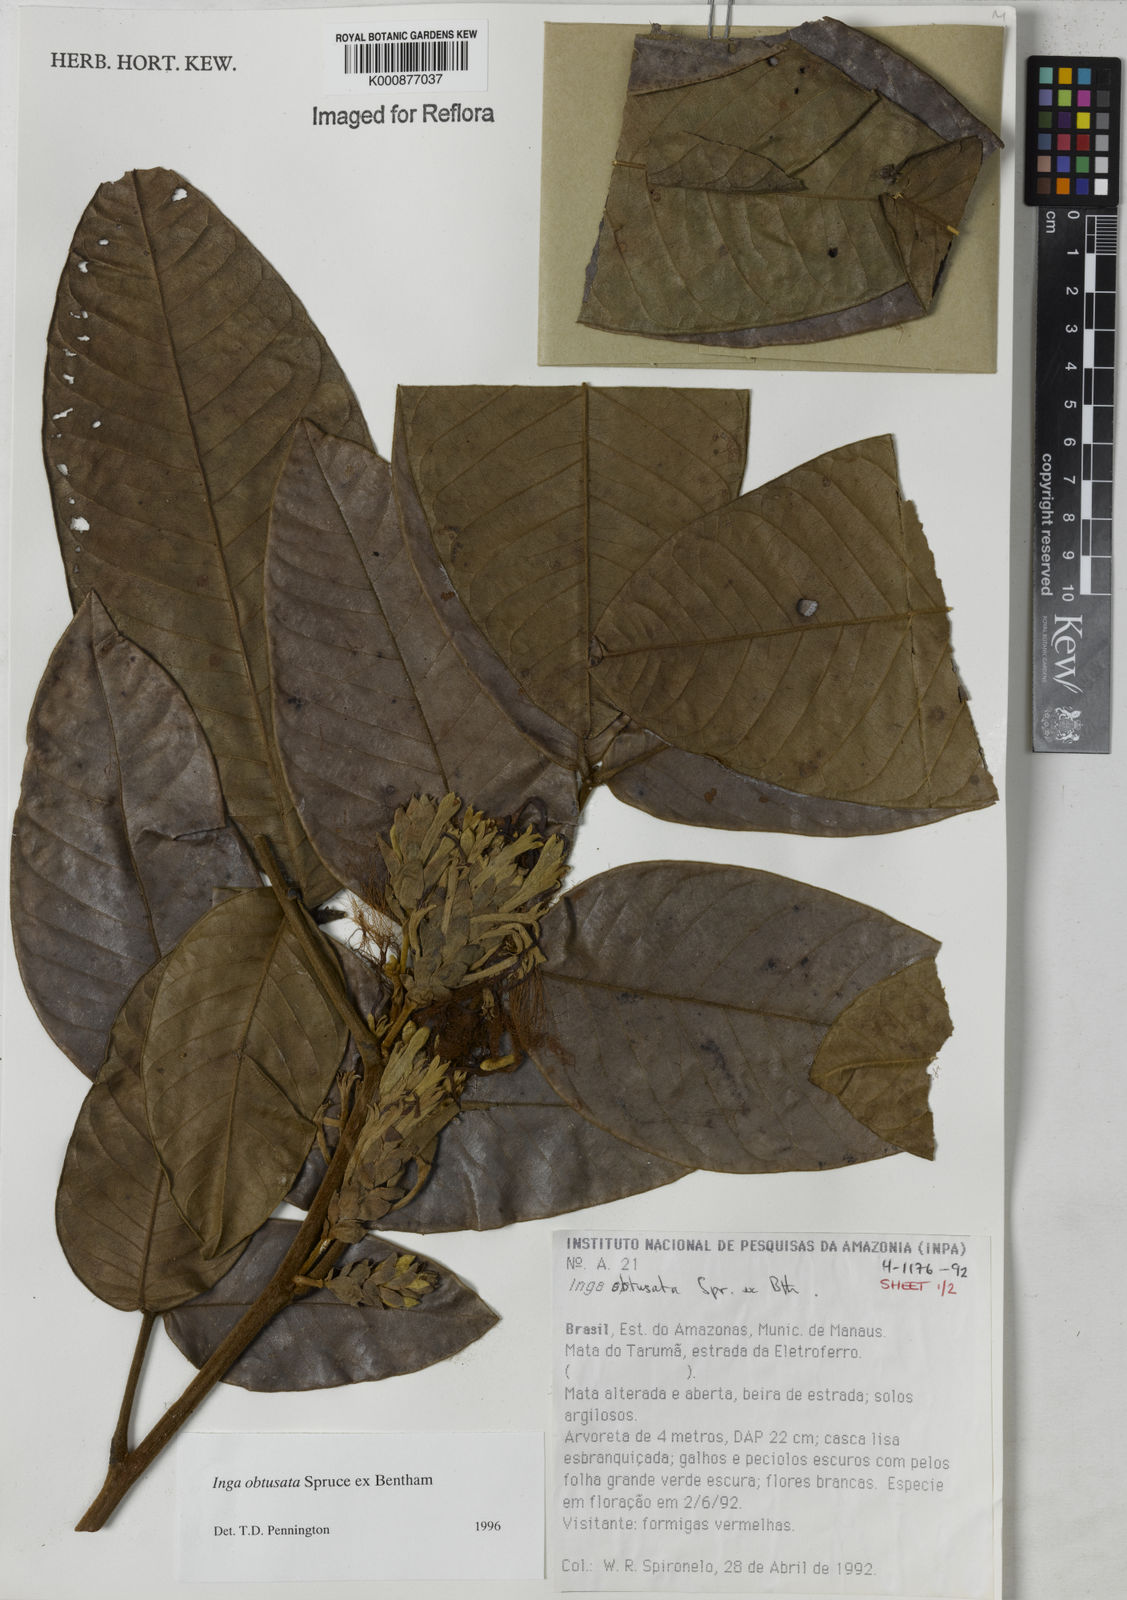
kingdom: Plantae
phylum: Tracheophyta
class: Magnoliopsida
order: Fabales
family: Fabaceae
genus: Inga
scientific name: Inga obtusata
